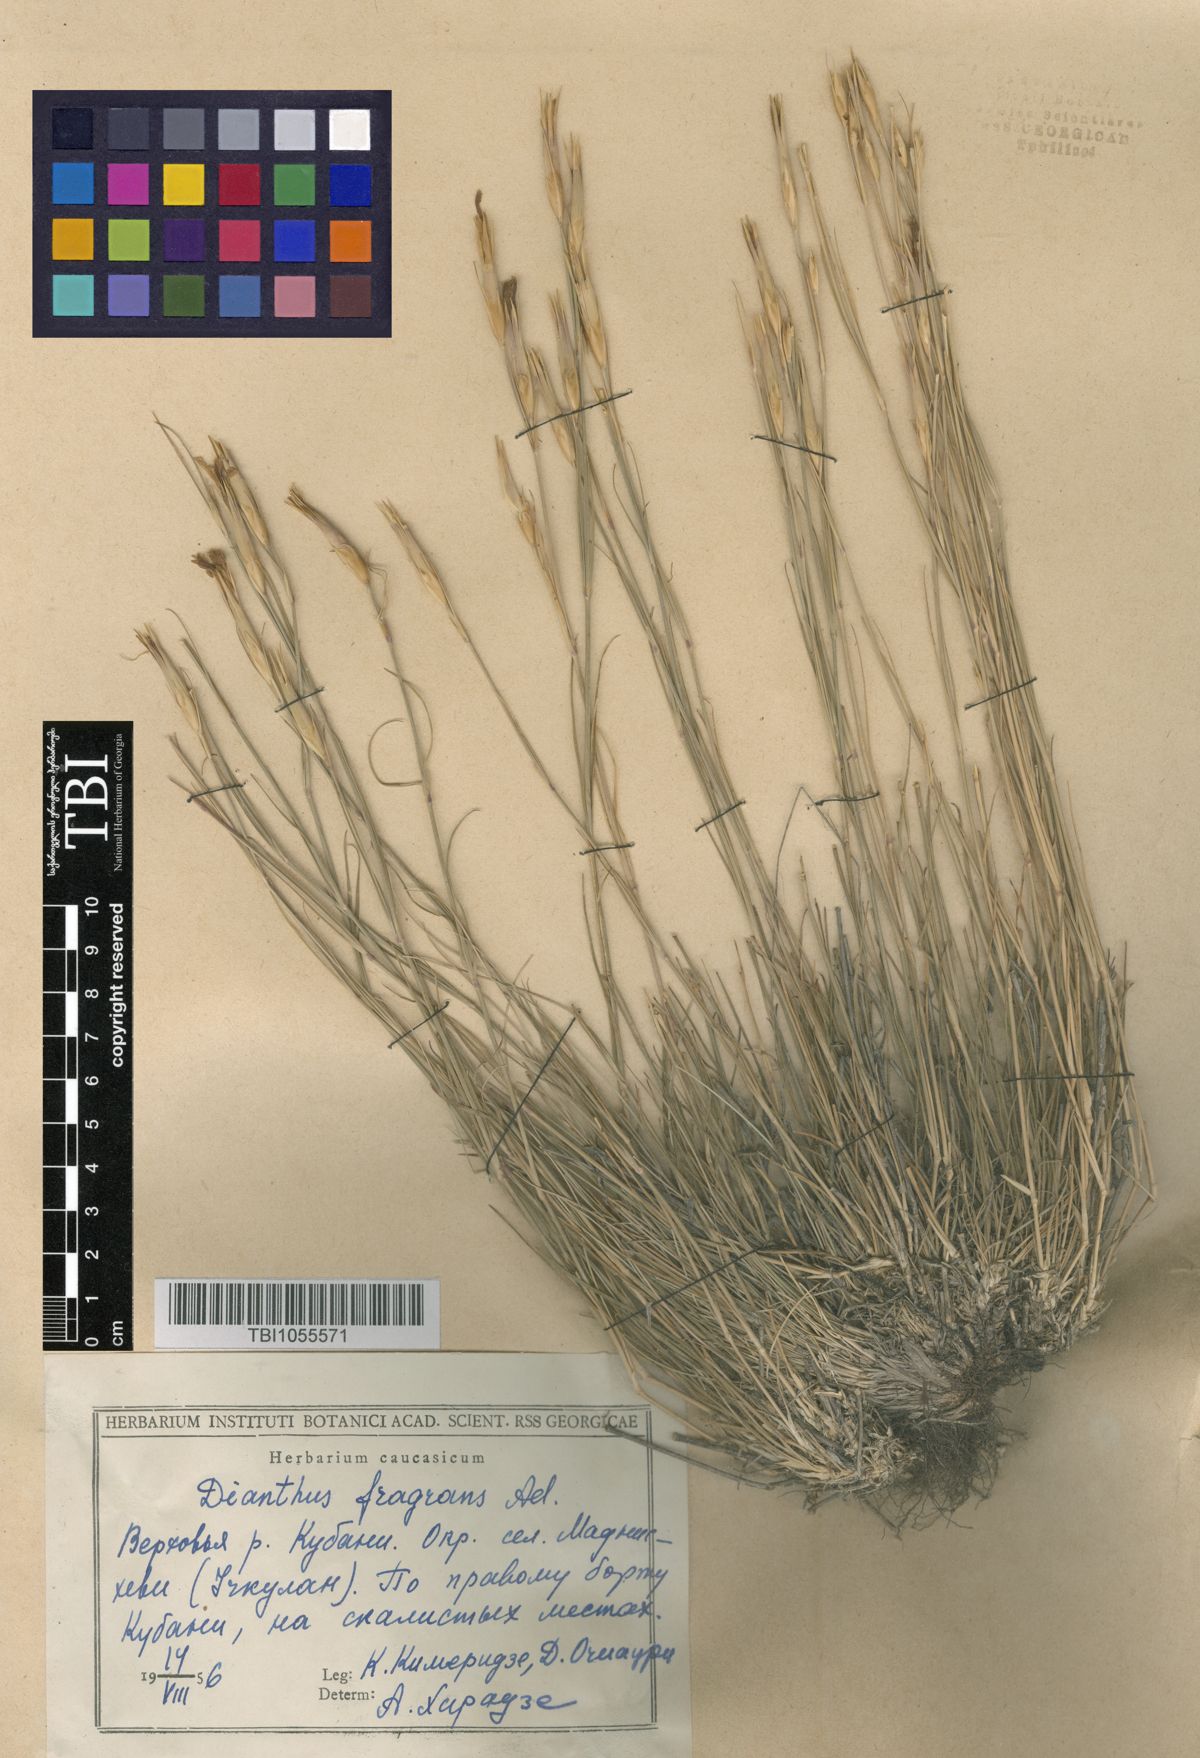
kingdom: Plantae
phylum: Tracheophyta
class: Magnoliopsida
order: Caryophyllales
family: Caryophyllaceae
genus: Dianthus
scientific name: Dianthus
